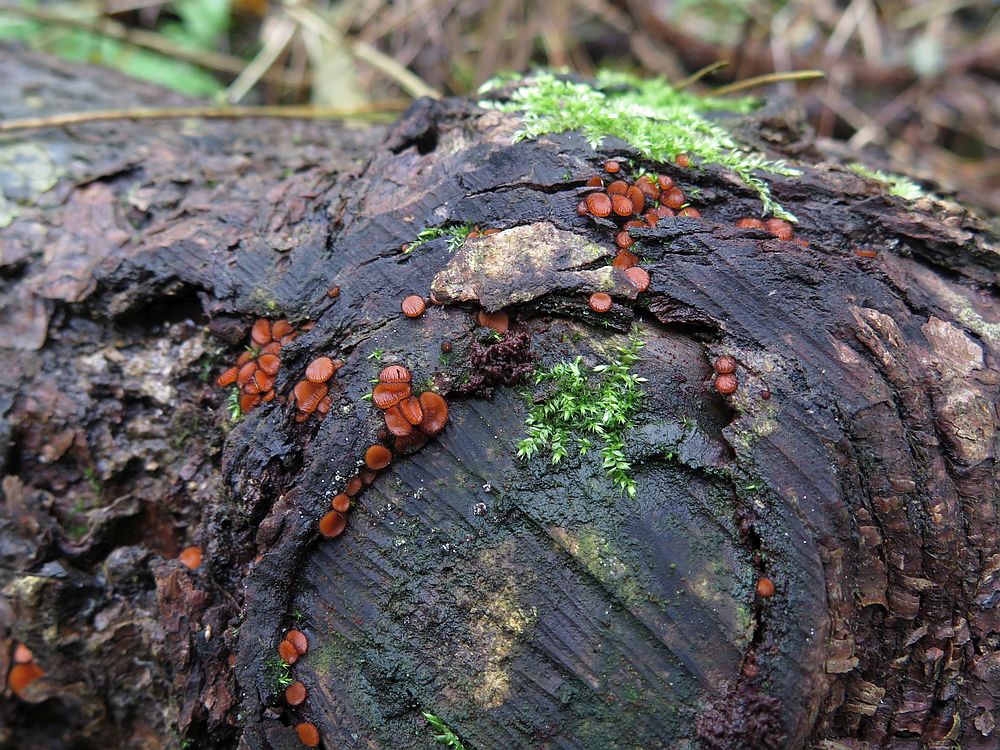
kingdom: Fungi
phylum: Ascomycota
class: Pezizomycetes
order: Pezizales
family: Pyronemataceae
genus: Scutellinia
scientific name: Scutellinia scutellata
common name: frynset skjoldbæger
